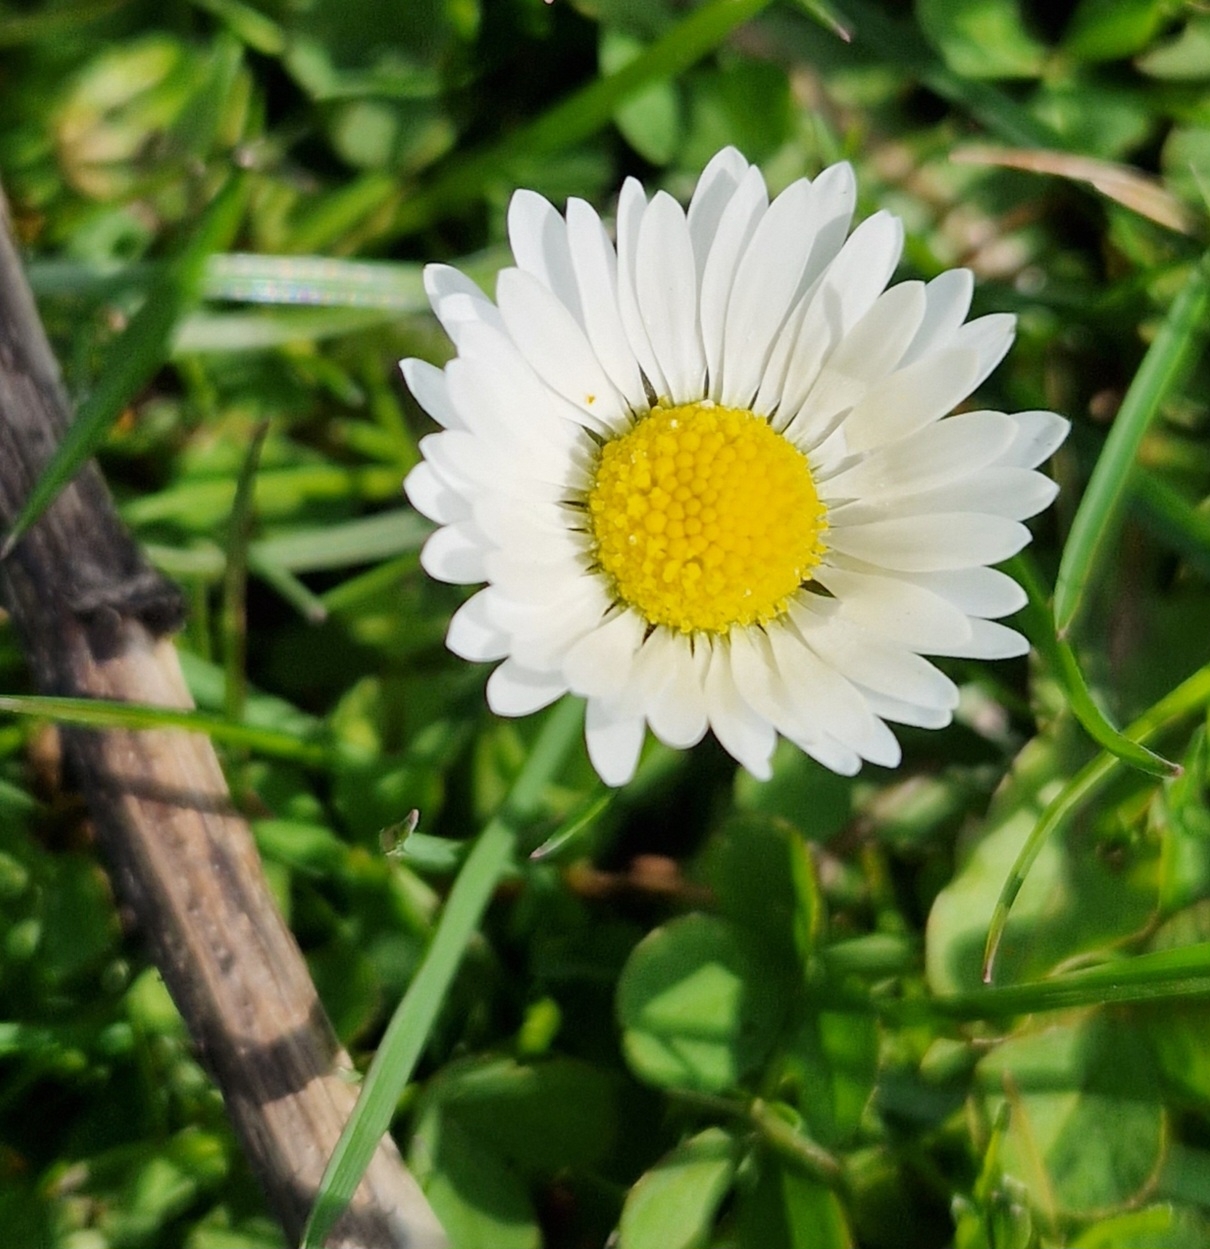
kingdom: Plantae
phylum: Tracheophyta
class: Magnoliopsida
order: Asterales
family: Asteraceae
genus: Bellis
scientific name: Bellis perennis
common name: Tusindfryd
